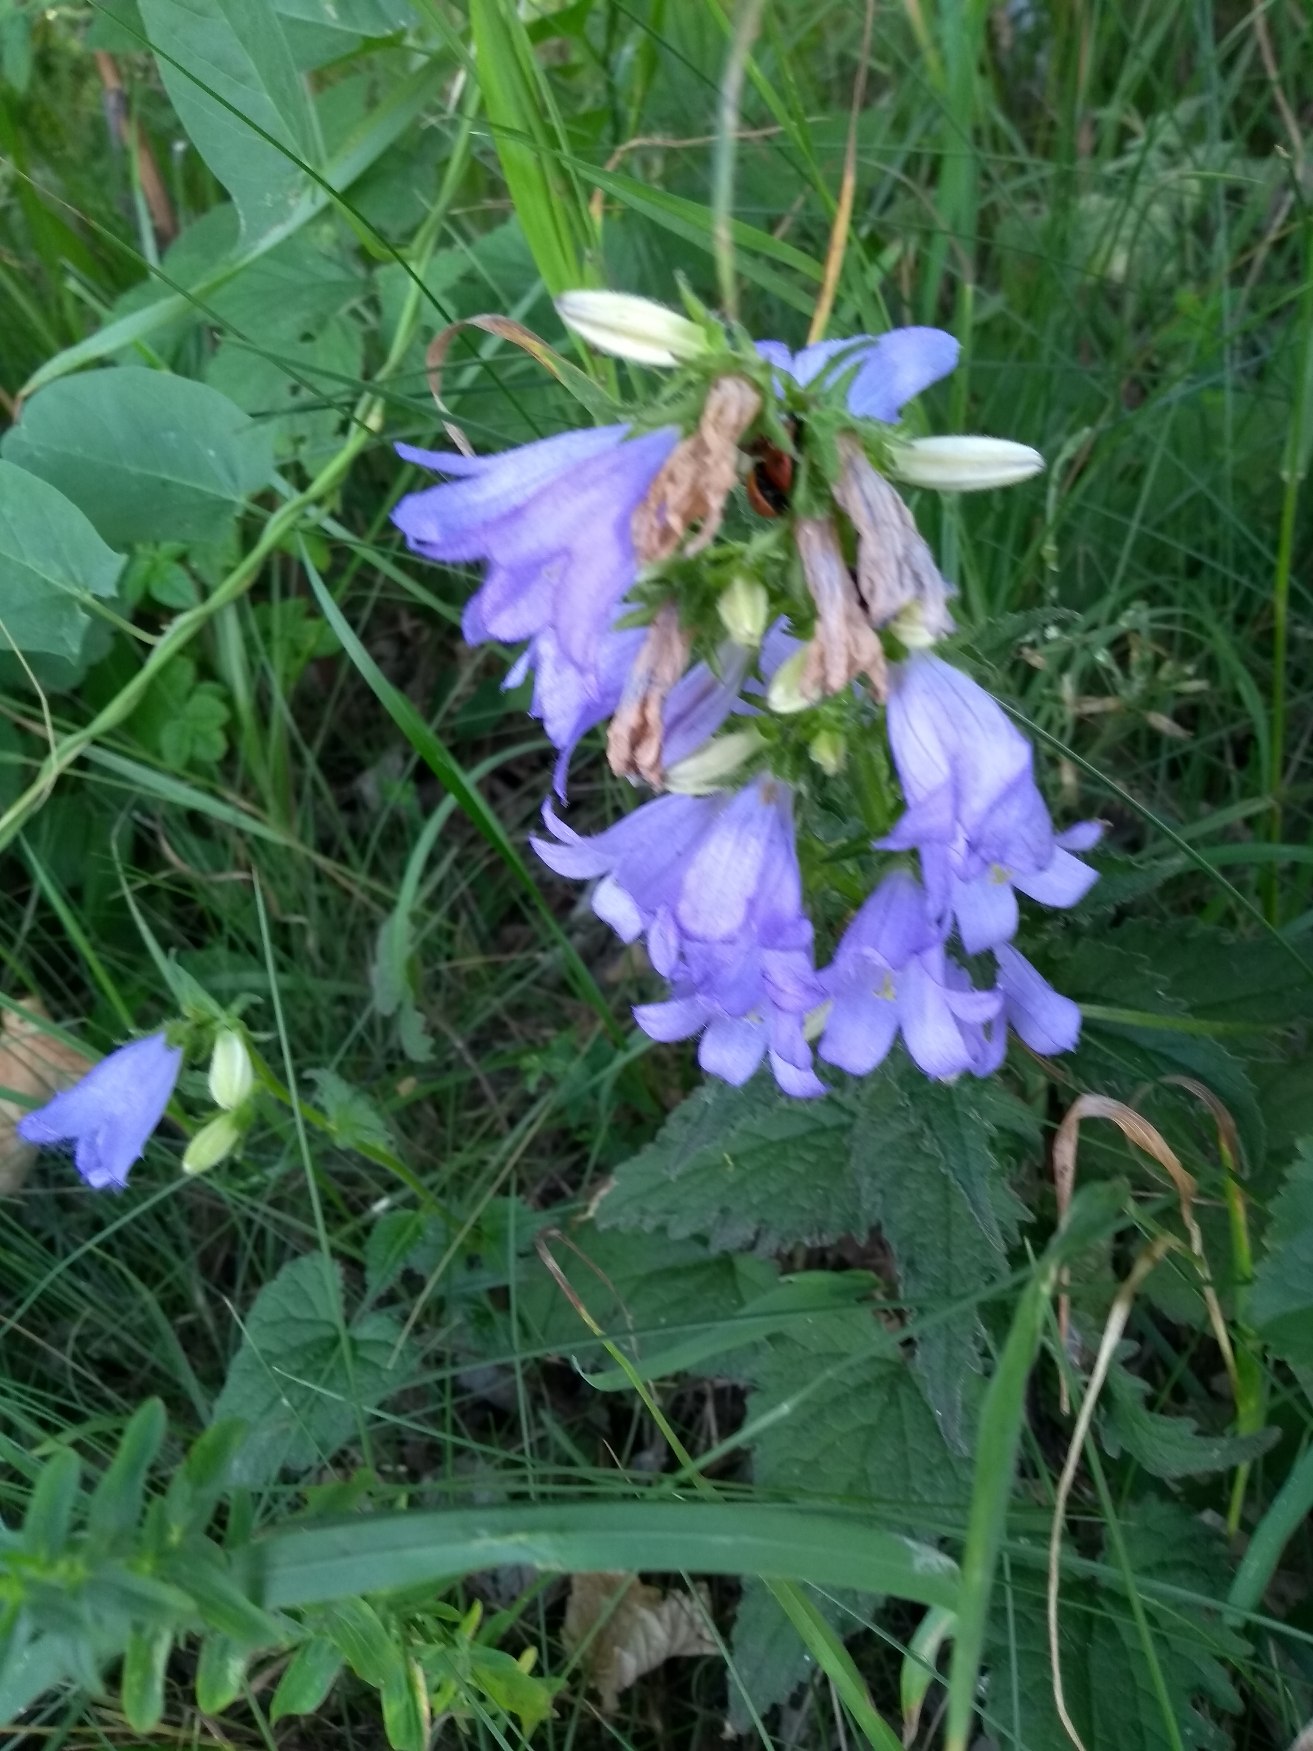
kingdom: Plantae
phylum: Tracheophyta
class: Magnoliopsida
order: Asterales
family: Campanulaceae
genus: Campanula
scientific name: Campanula trachelium
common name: Nælde-klokke
